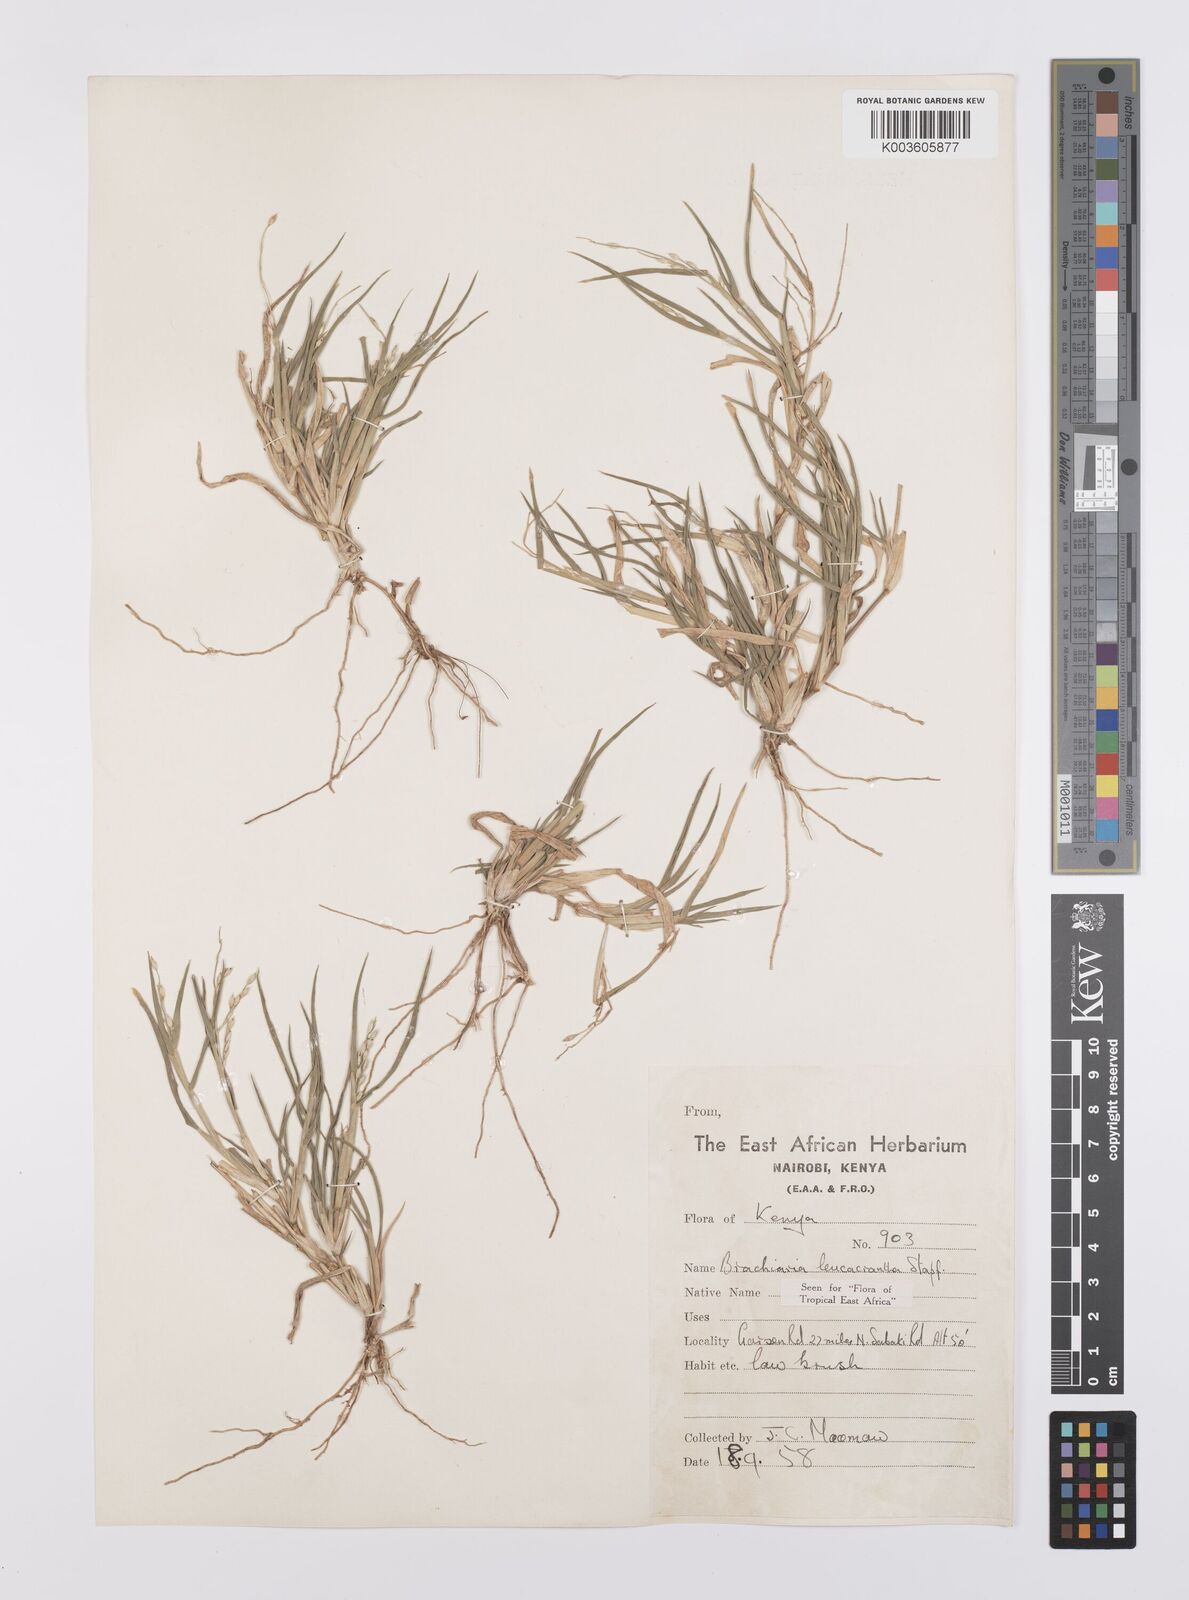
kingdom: Plantae
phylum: Tracheophyta
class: Liliopsida
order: Poales
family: Poaceae
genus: Urochloa
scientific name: Urochloa xantholeuca
